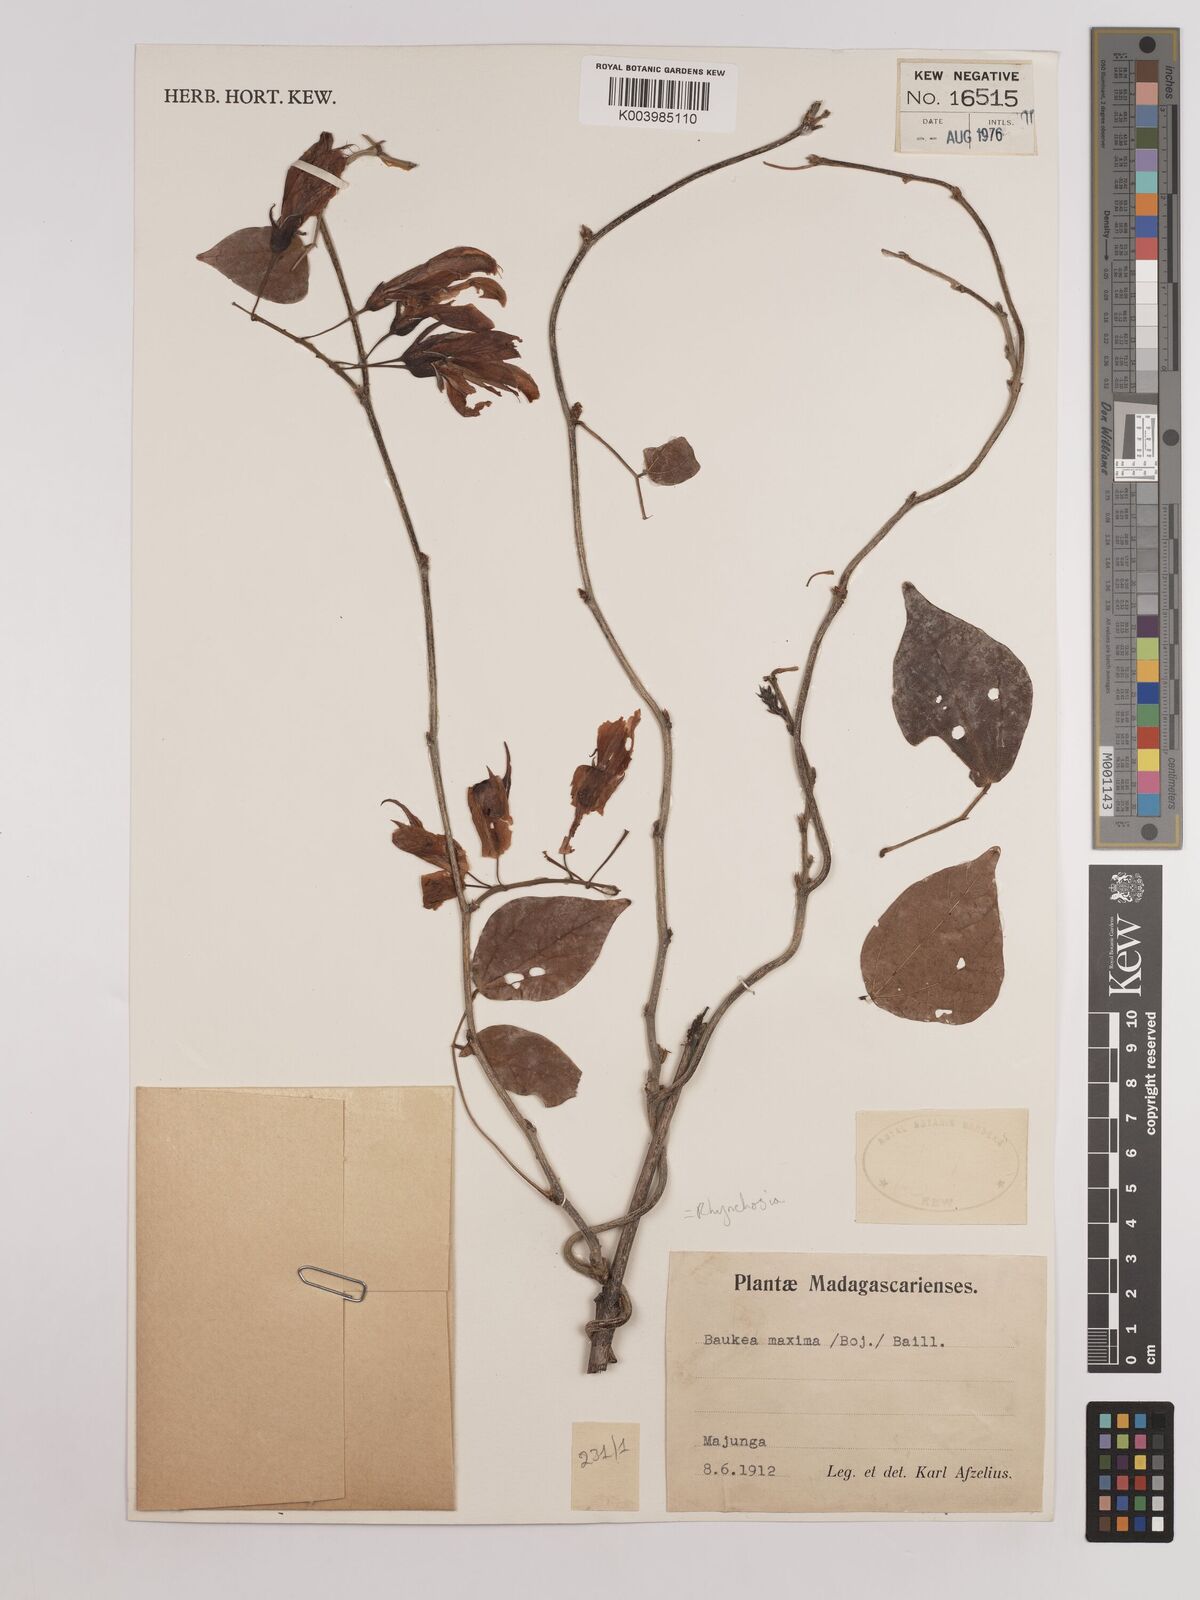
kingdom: Plantae
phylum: Tracheophyta
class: Magnoliopsida
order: Fabales
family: Fabaceae
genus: Rhynchosia
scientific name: Rhynchosia baukea
